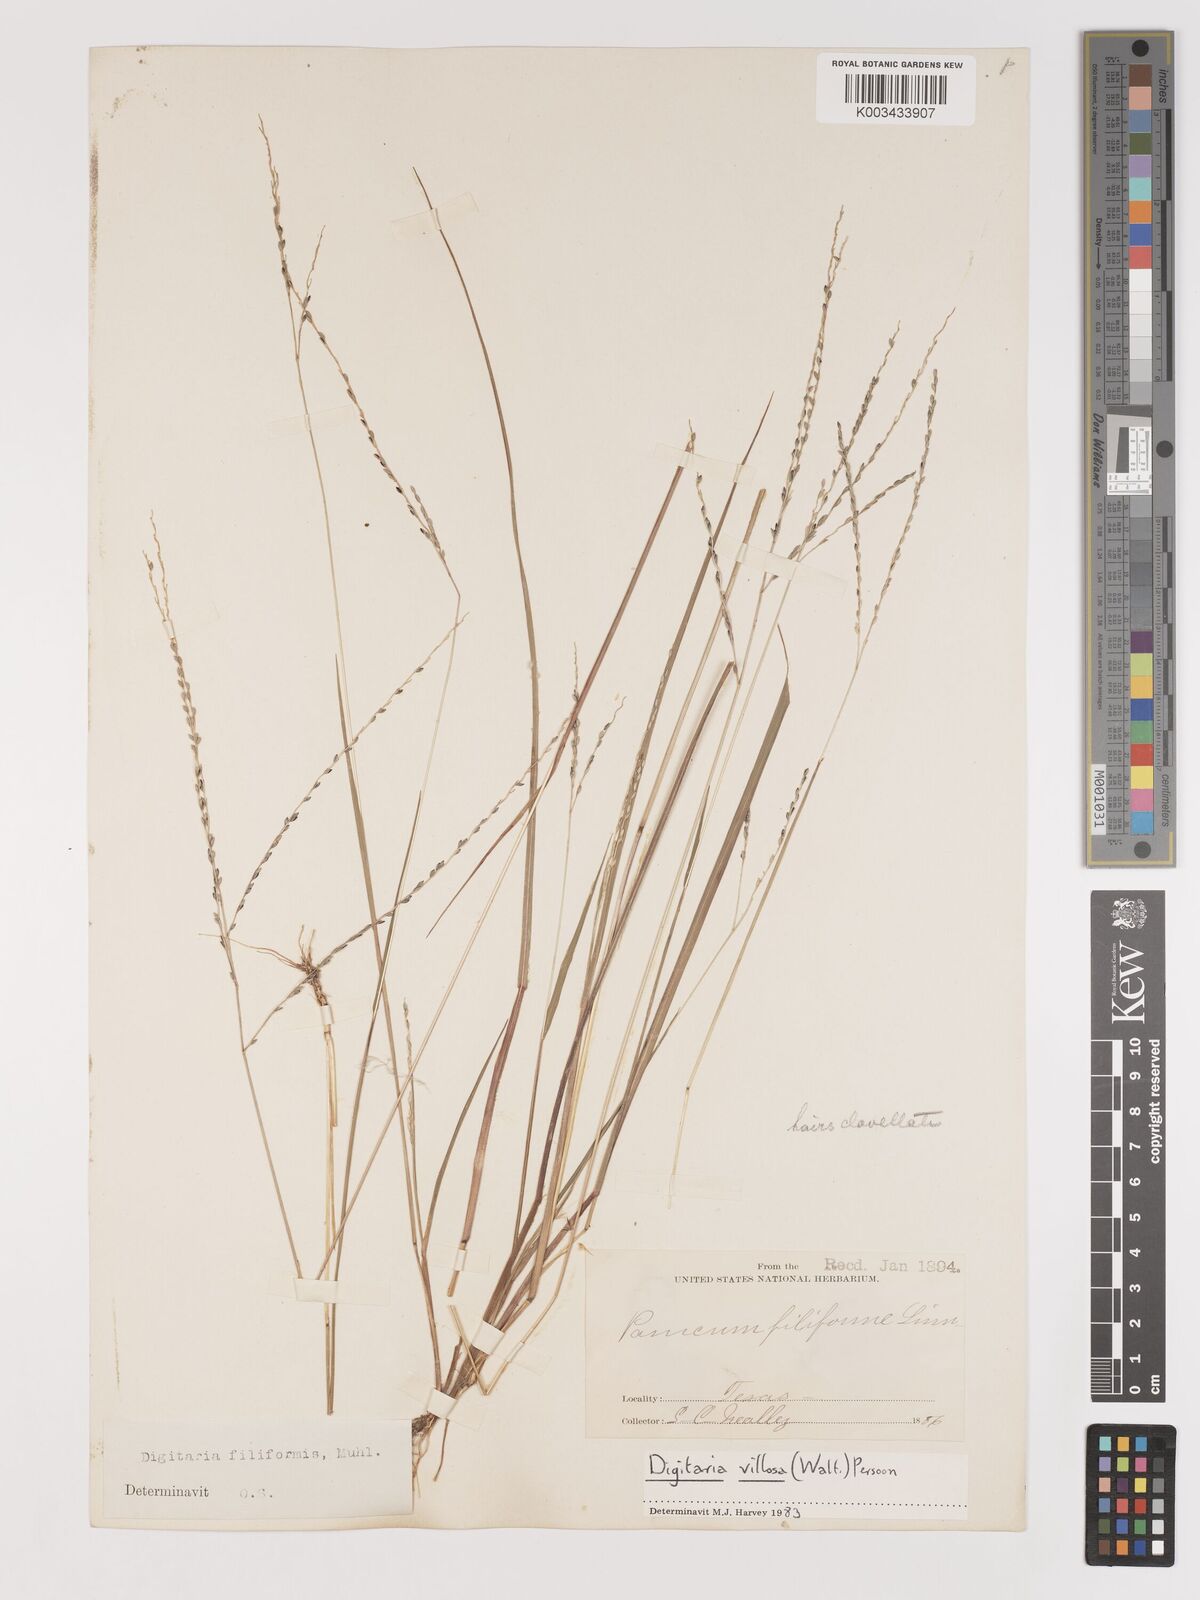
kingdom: Plantae
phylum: Tracheophyta
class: Liliopsida
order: Poales
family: Poaceae
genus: Digitaria
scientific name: Digitaria villosa
